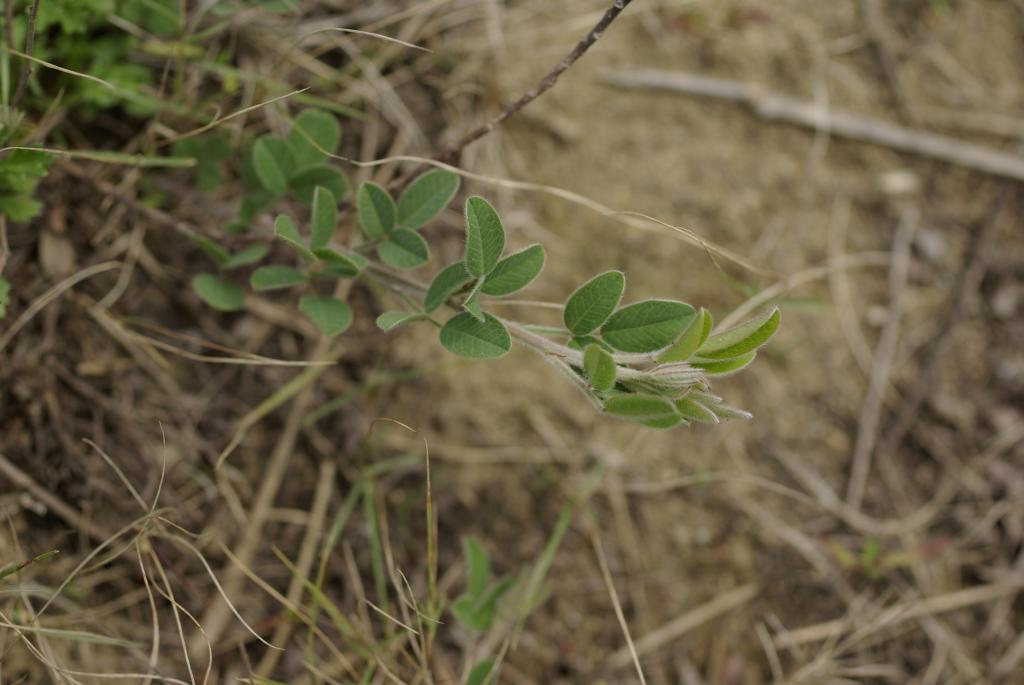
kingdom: Plantae
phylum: Tracheophyta
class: Magnoliopsida
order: Fabales
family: Fabaceae
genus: Lespedeza
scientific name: Lespedeza daurica
